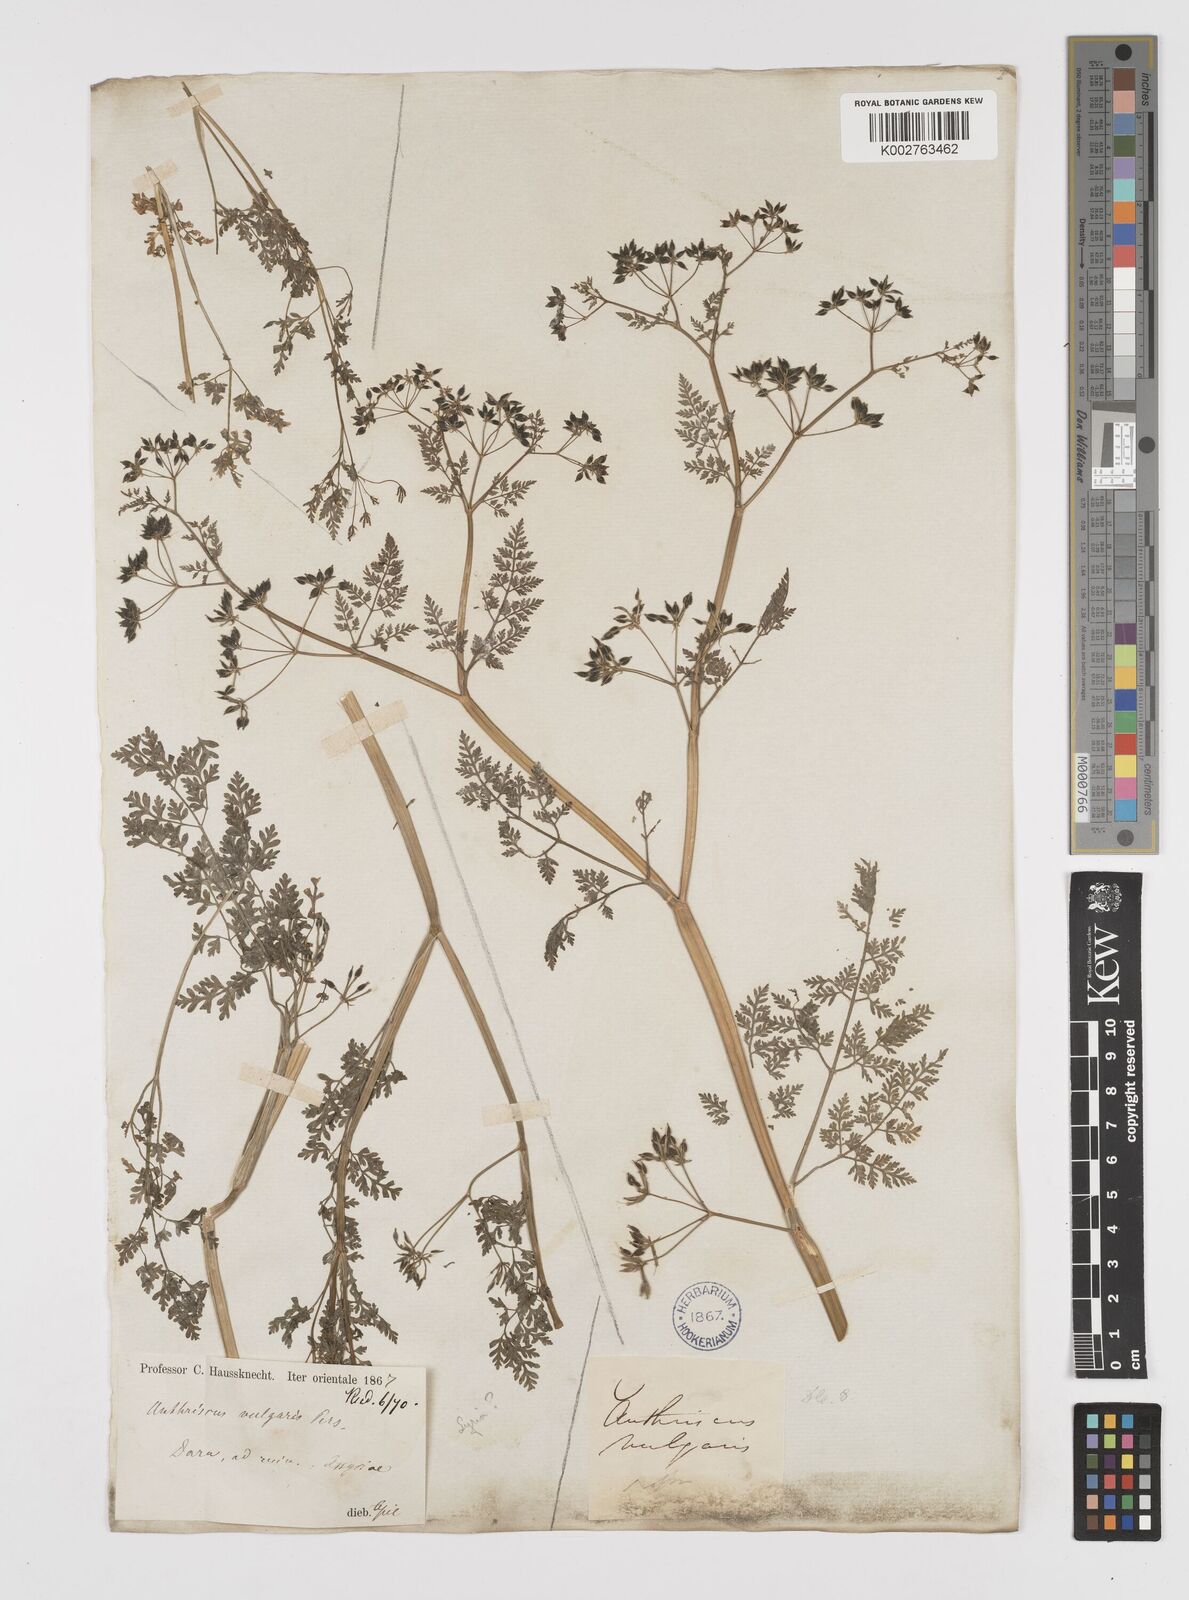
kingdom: Plantae
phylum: Tracheophyta
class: Magnoliopsida
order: Apiales
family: Apiaceae
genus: Anthriscus
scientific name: Anthriscus caucalis
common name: Bur chervil
